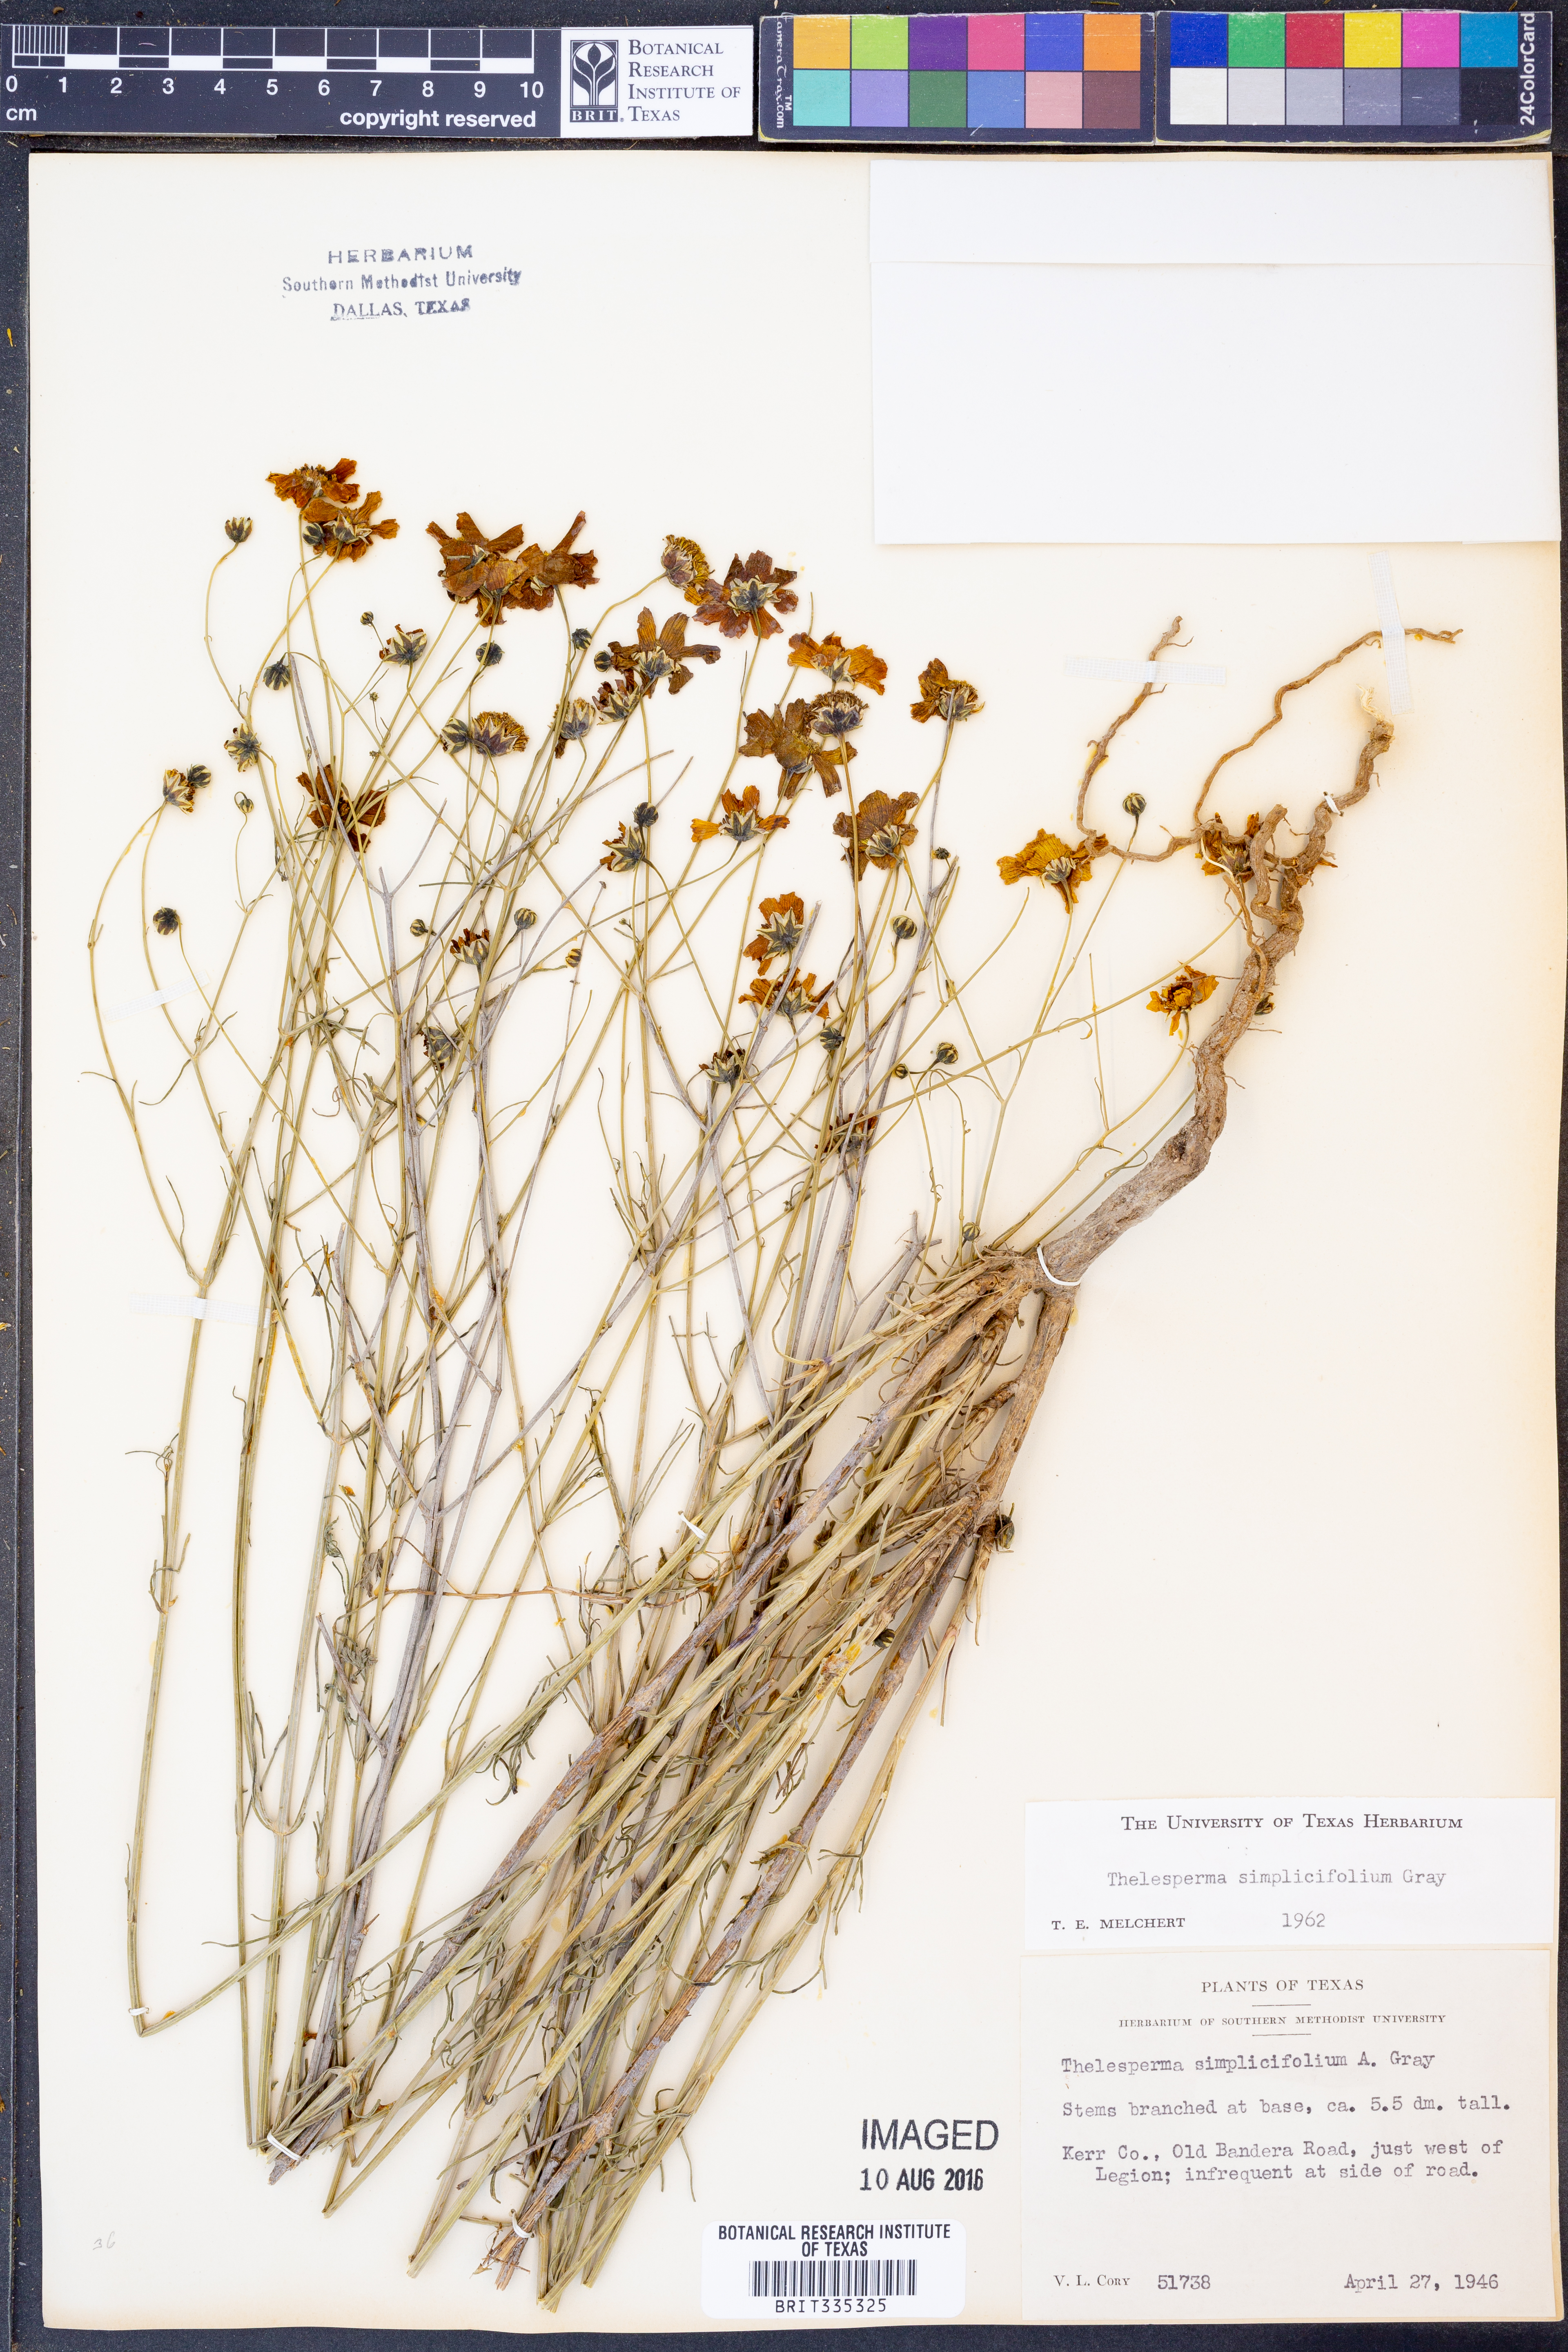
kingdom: Plantae
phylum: Tracheophyta
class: Magnoliopsida
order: Asterales
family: Asteraceae
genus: Thelesperma
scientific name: Thelesperma simplicifolium
